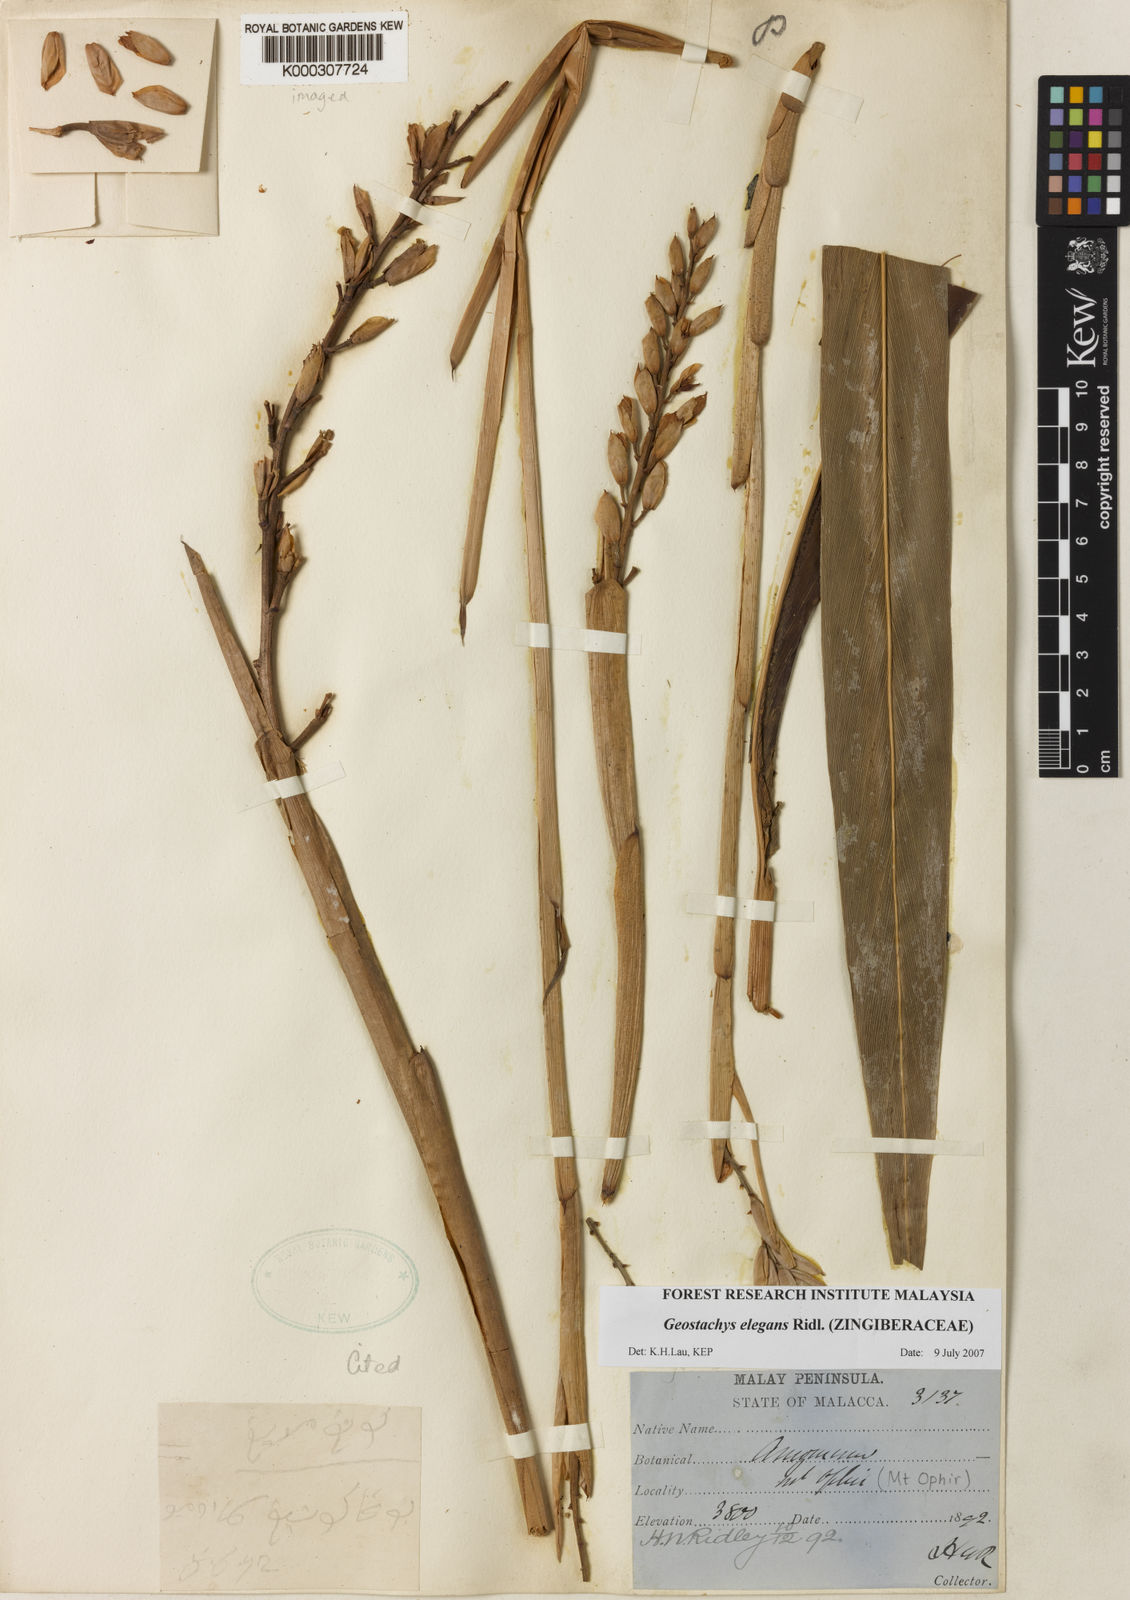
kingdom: Plantae
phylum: Tracheophyta
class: Liliopsida
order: Zingiberales
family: Zingiberaceae
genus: Geostachys
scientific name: Geostachys elegans
